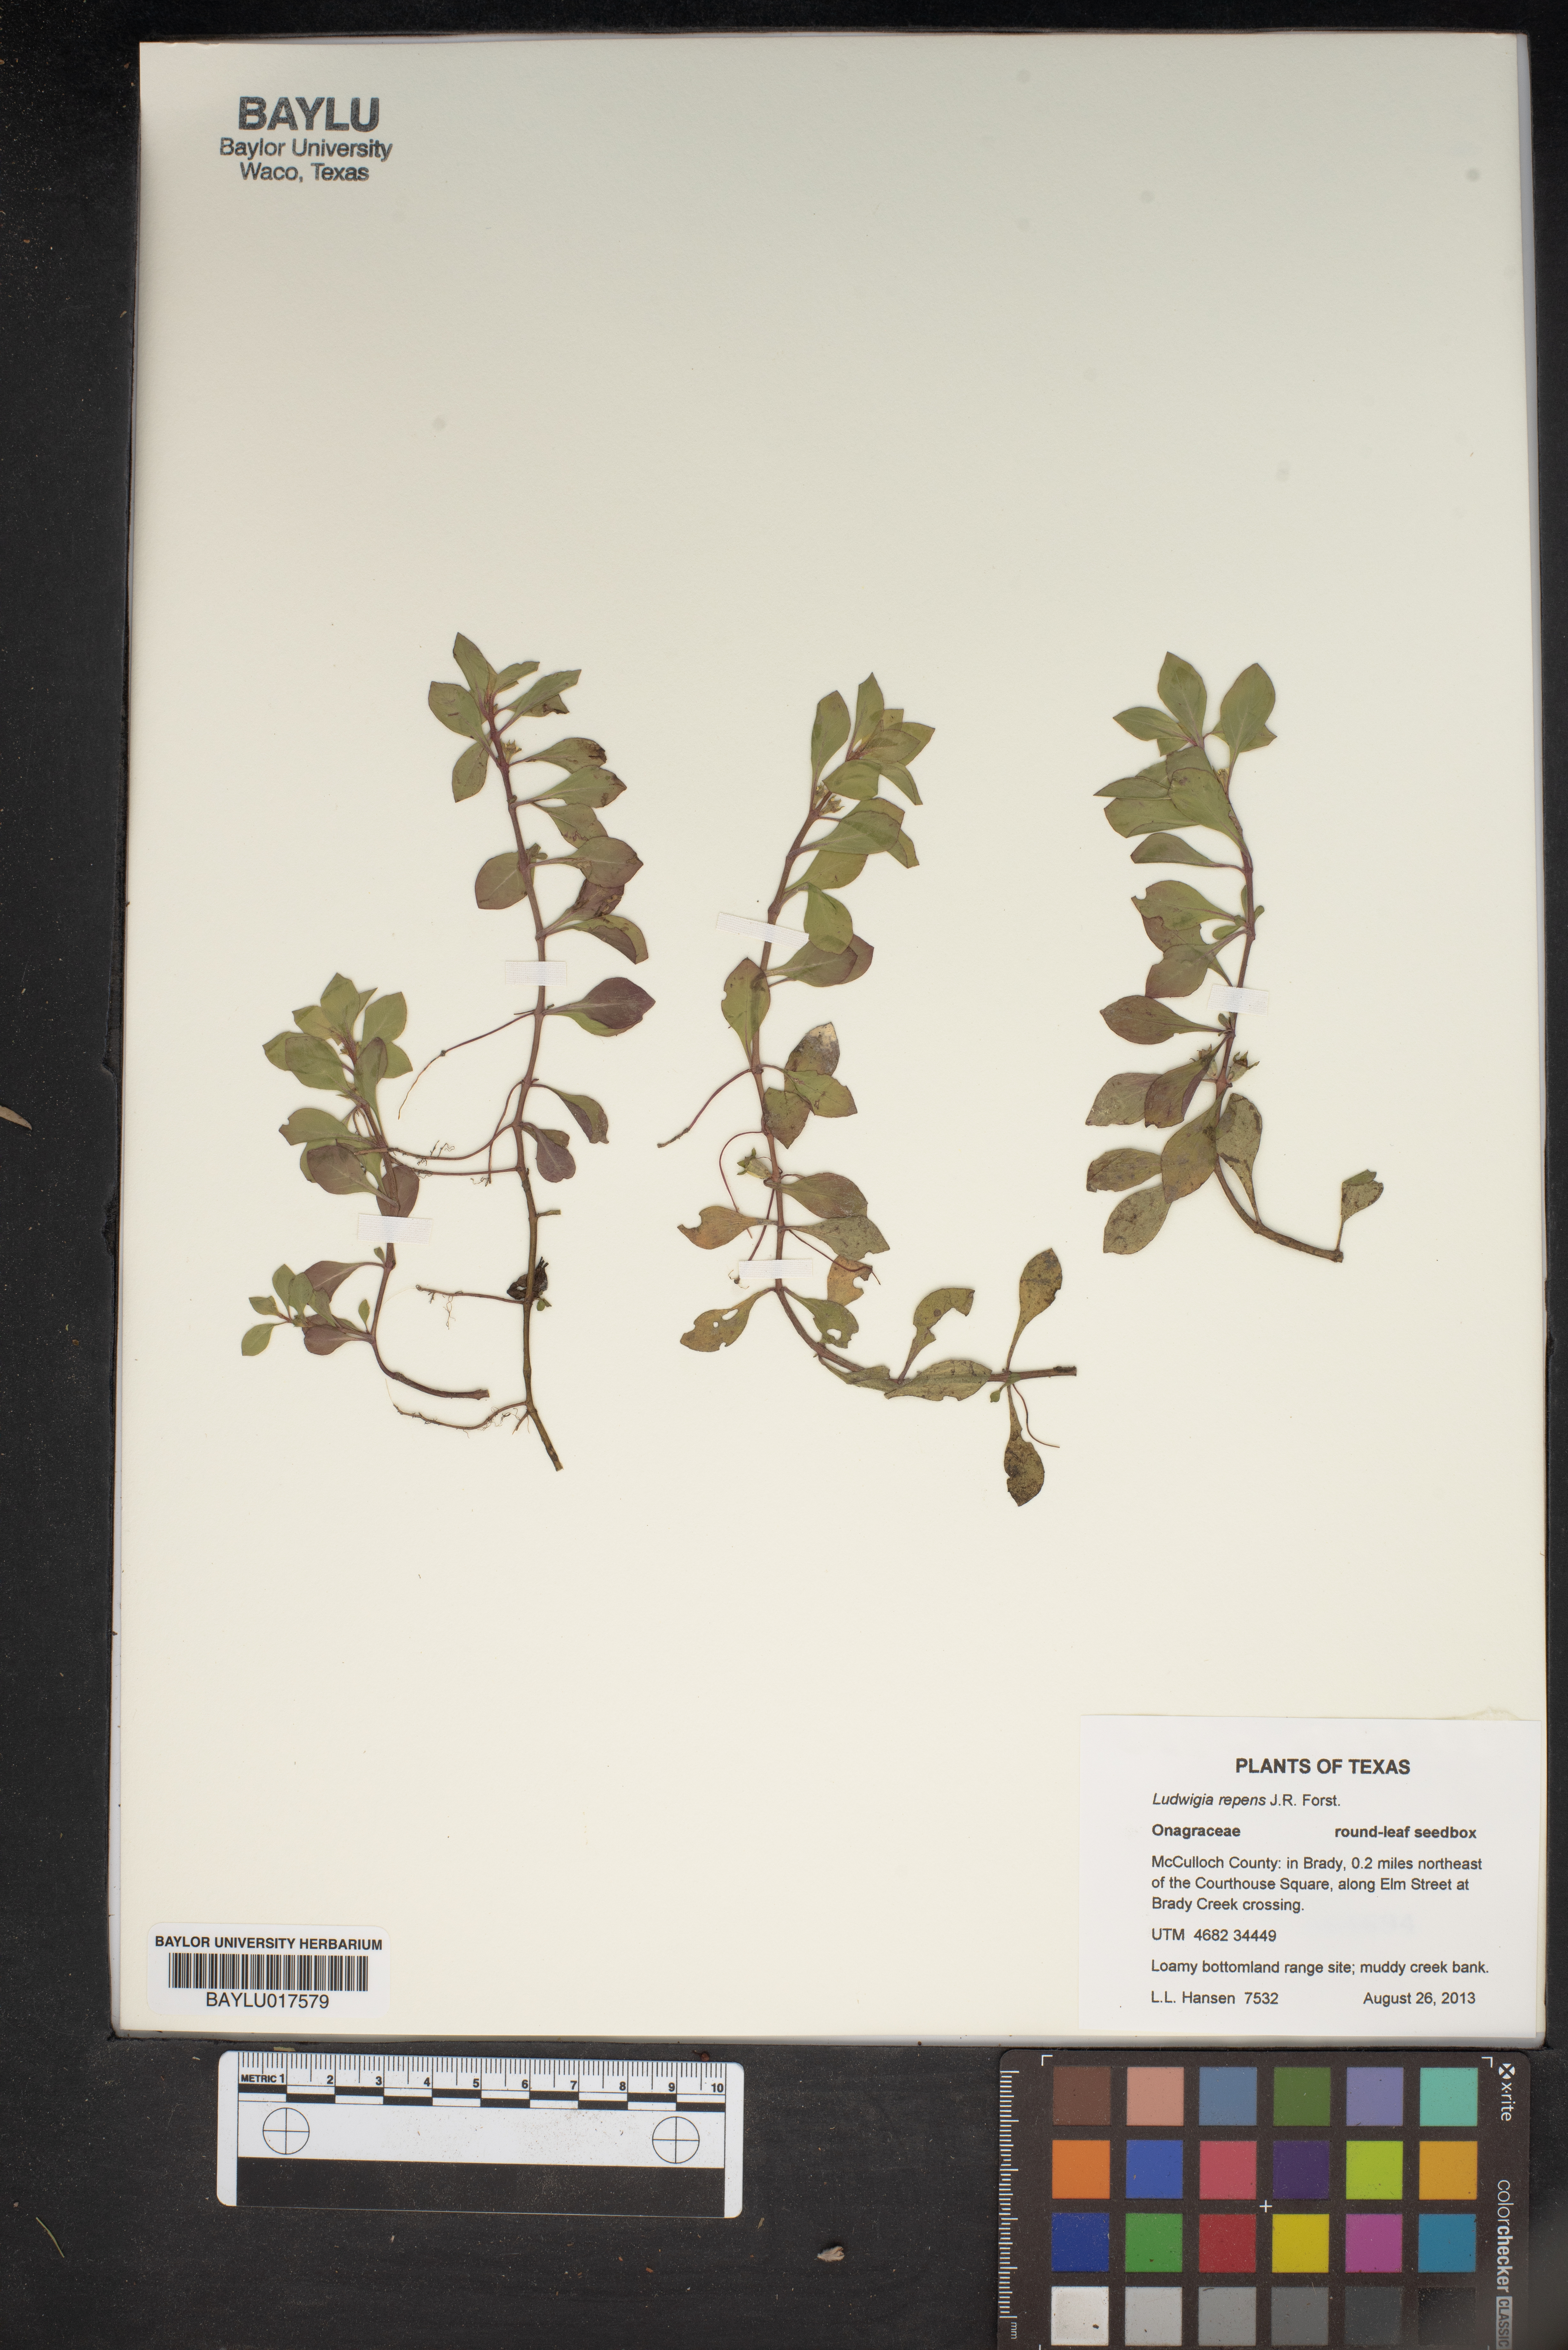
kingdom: Plantae
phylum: Tracheophyta
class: Magnoliopsida
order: Myrtales
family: Onagraceae
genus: Ludwigia
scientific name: Ludwigia repens
